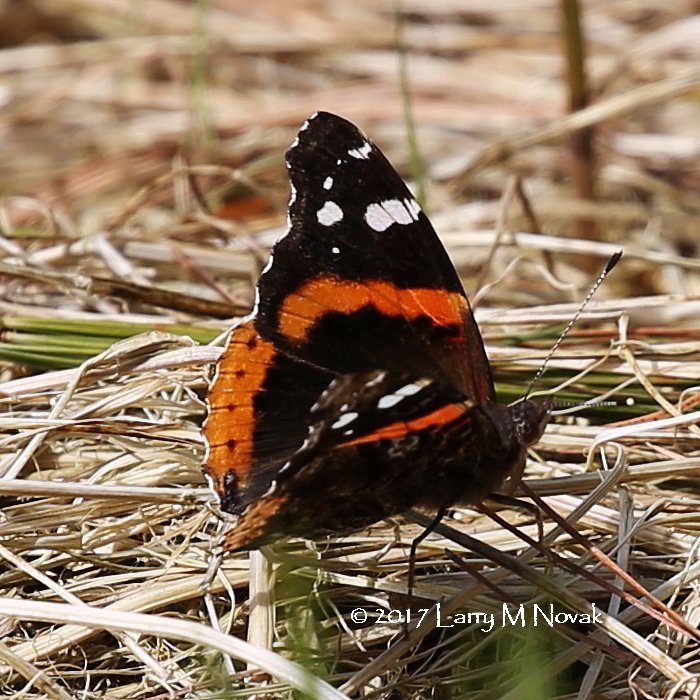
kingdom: Animalia
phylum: Arthropoda
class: Insecta
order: Lepidoptera
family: Nymphalidae
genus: Vanessa
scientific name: Vanessa atalanta
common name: Red Admiral
